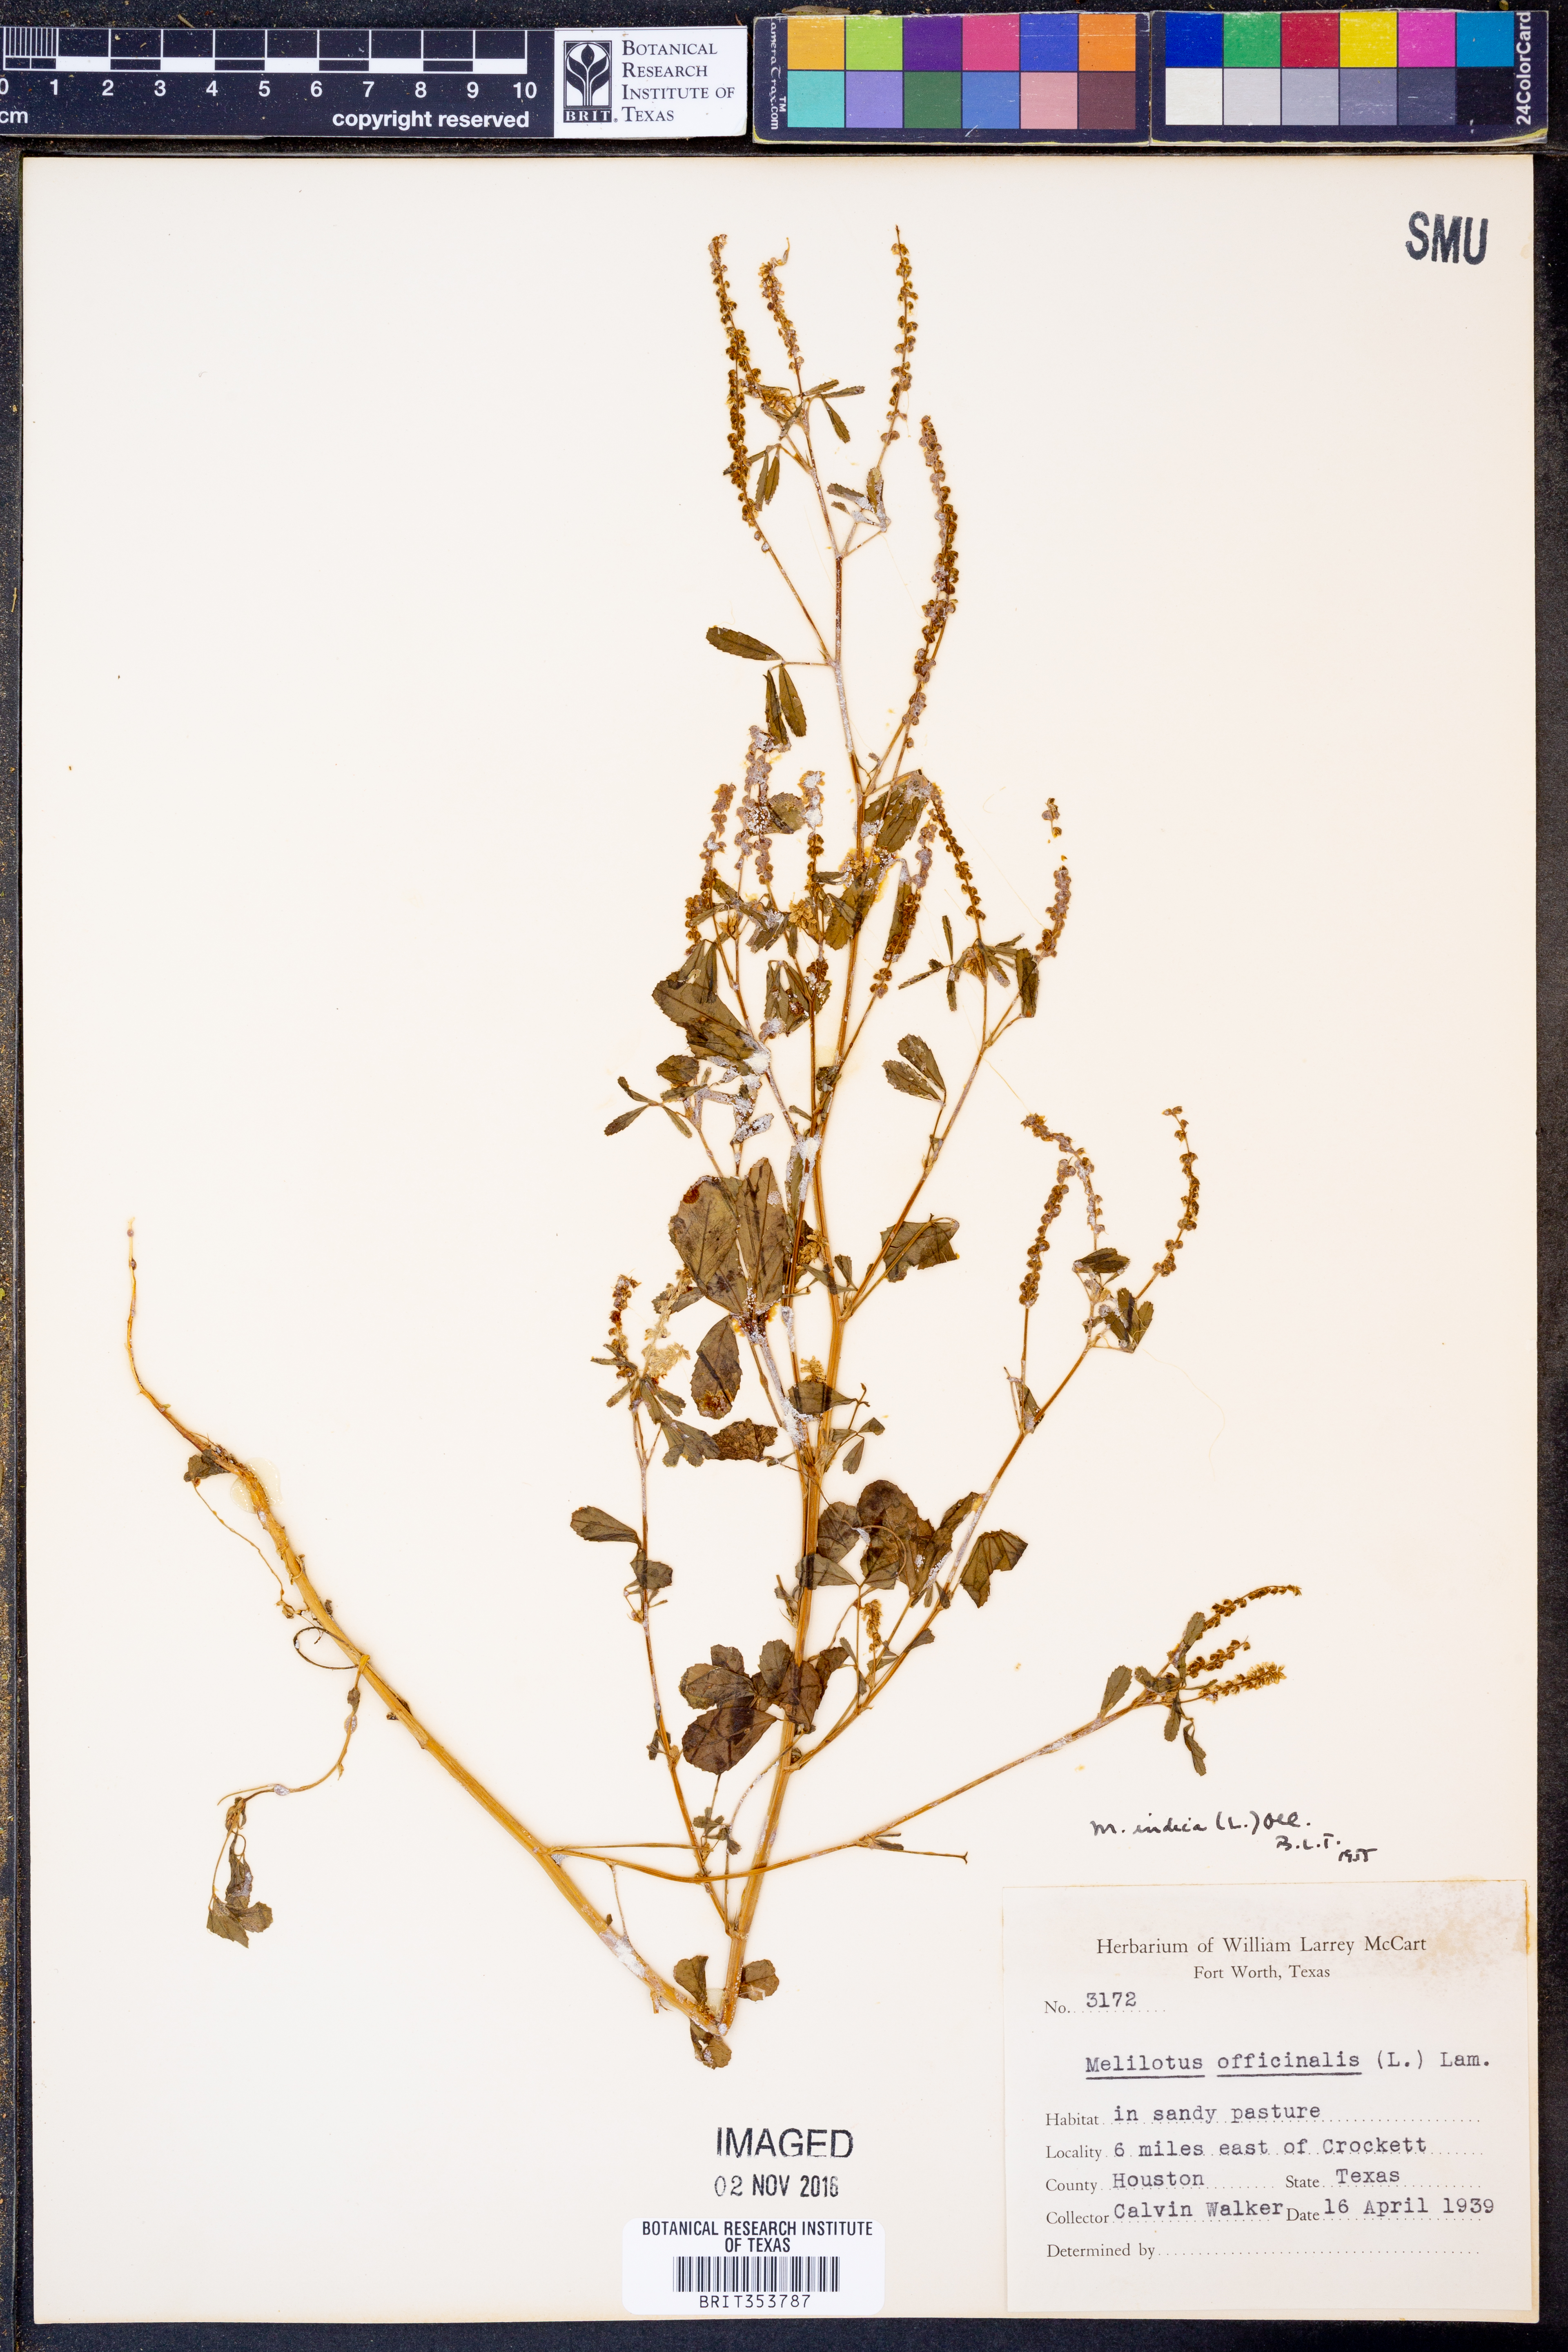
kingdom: Plantae
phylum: Tracheophyta
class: Magnoliopsida
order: Fabales
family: Fabaceae
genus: Melilotus
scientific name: Melilotus indicus
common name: Small melilot
